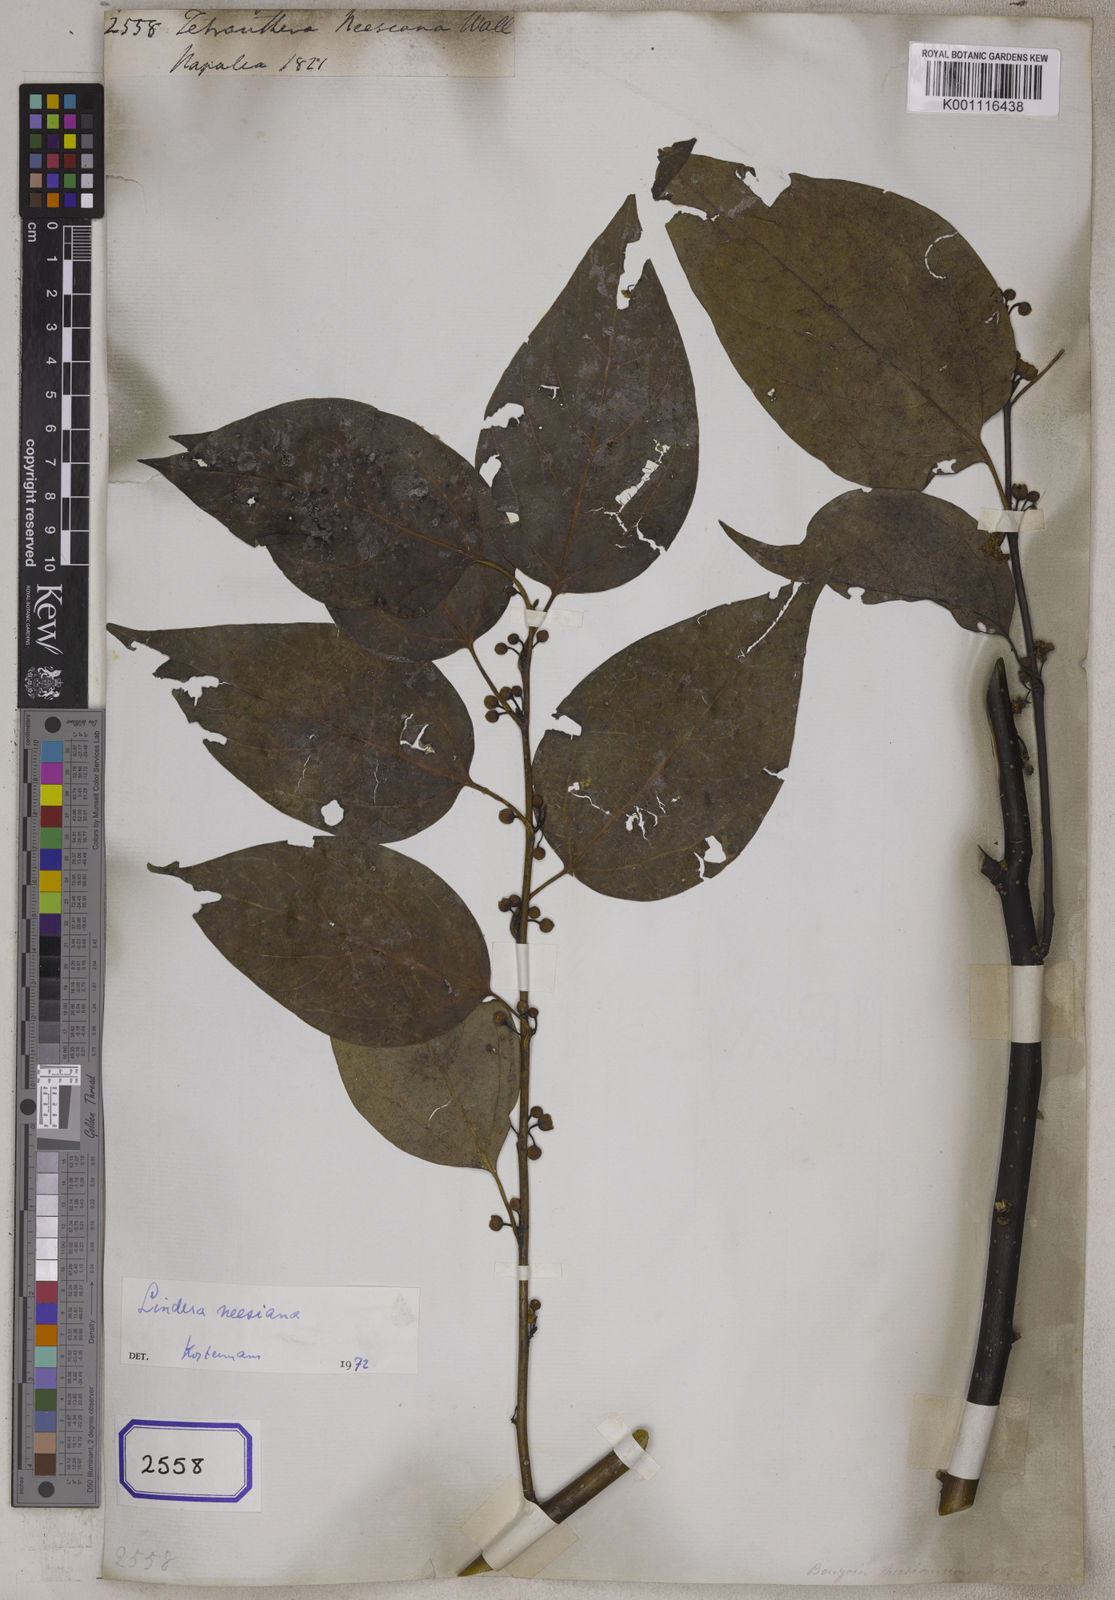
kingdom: Plantae
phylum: Tracheophyta
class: Magnoliopsida
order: Laurales
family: Lauraceae
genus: Lindera
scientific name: Lindera neesiana
